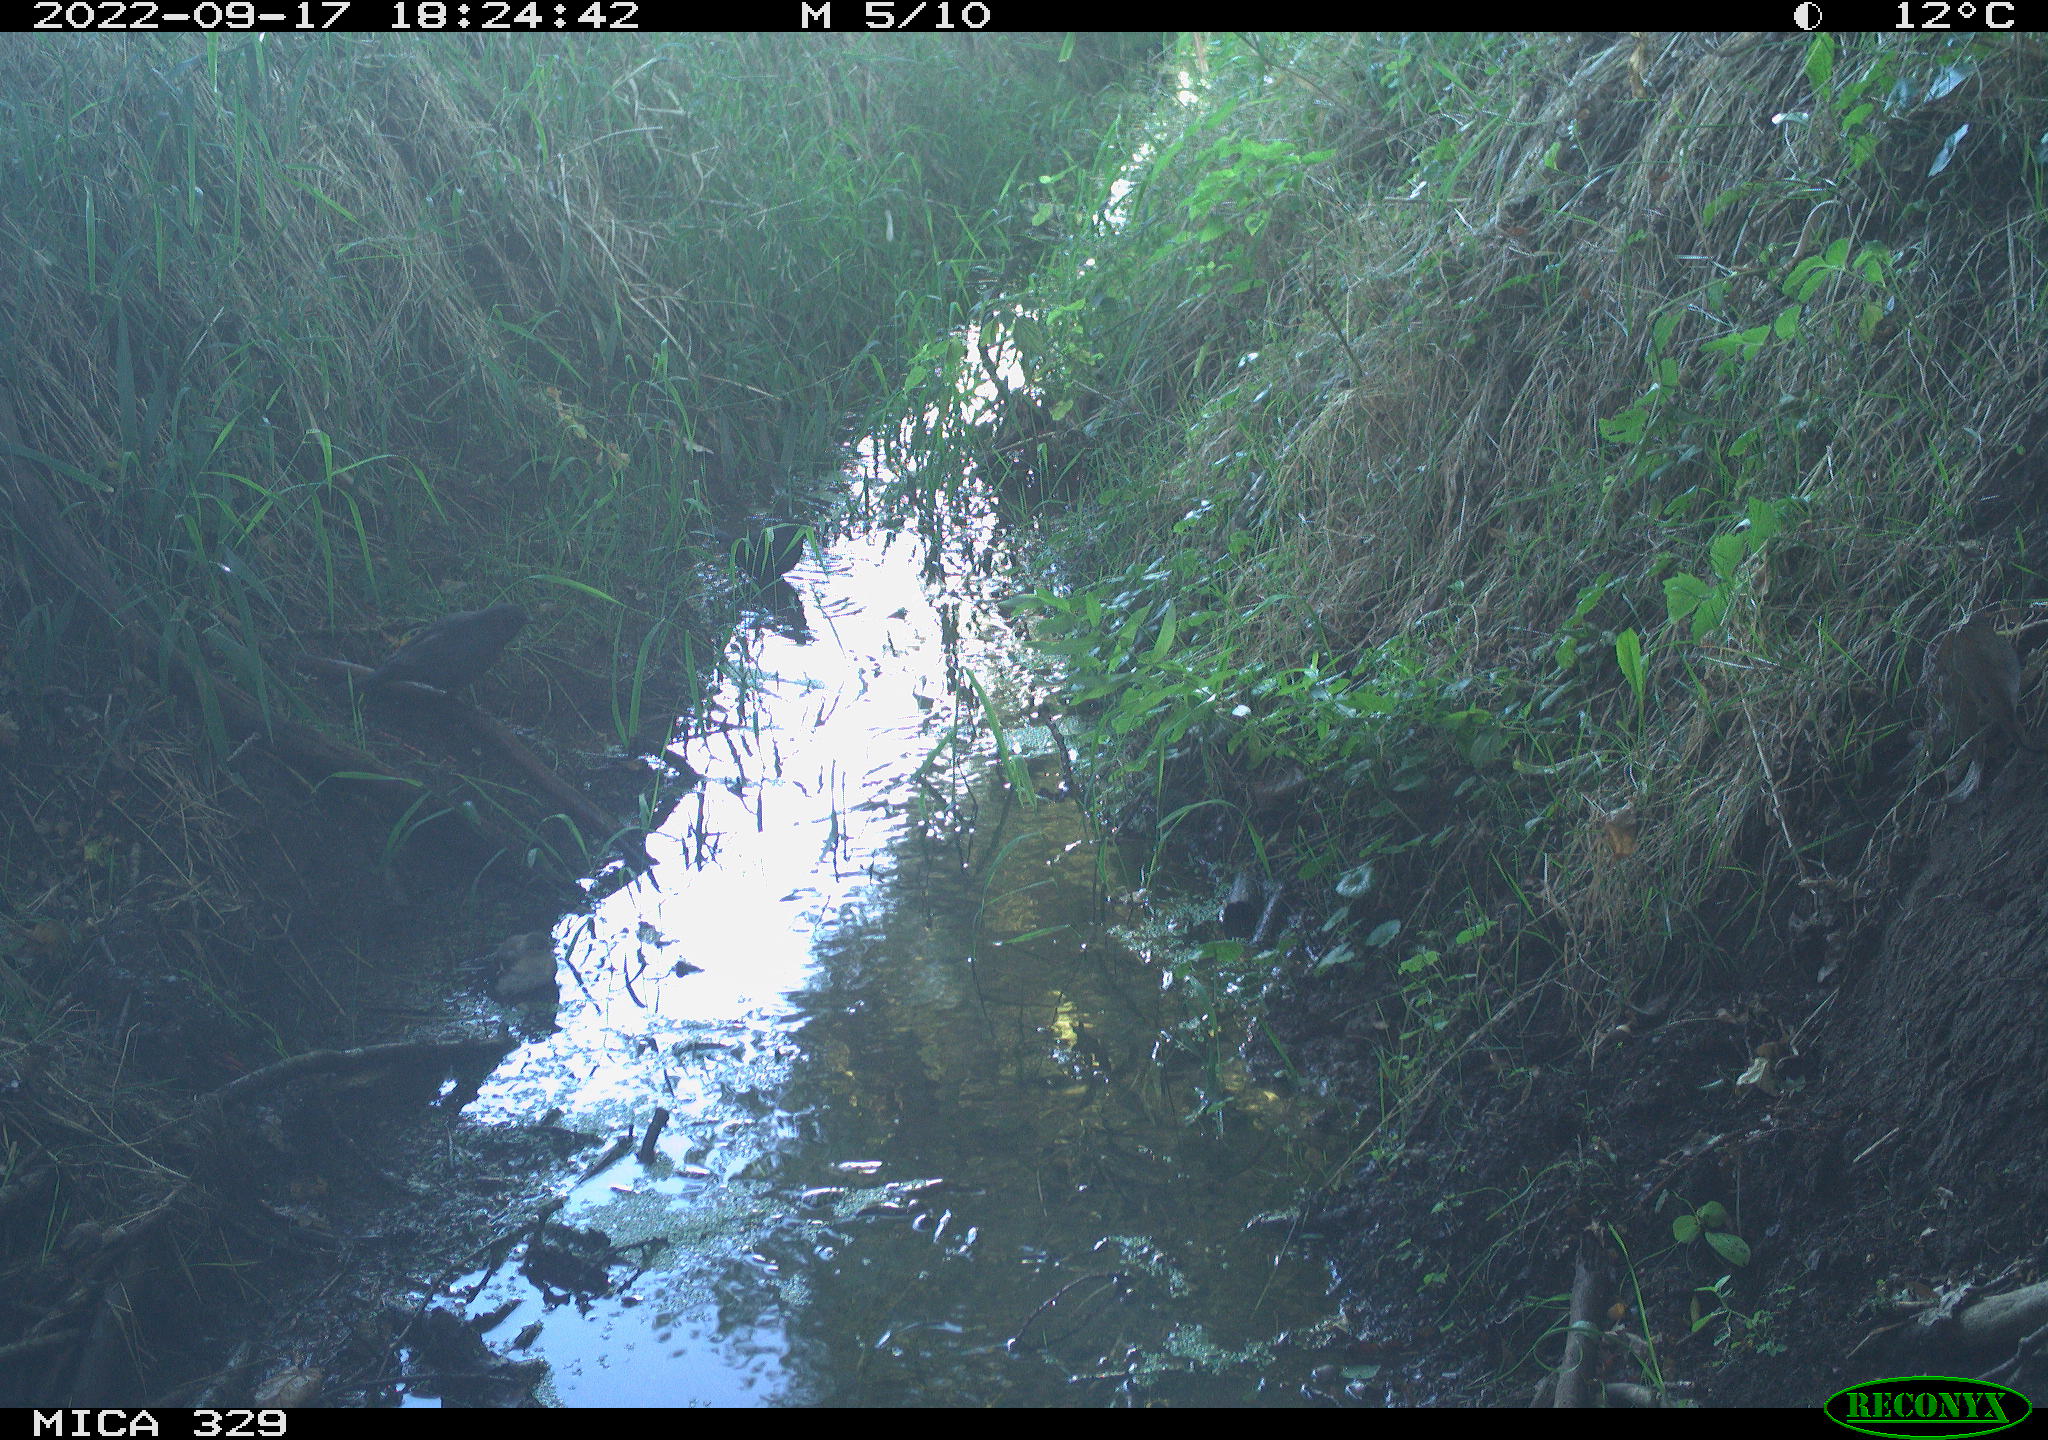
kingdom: Animalia
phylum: Chordata
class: Aves
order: Passeriformes
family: Fringillidae
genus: Fringilla
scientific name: Fringilla coelebs
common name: Common chaffinch
